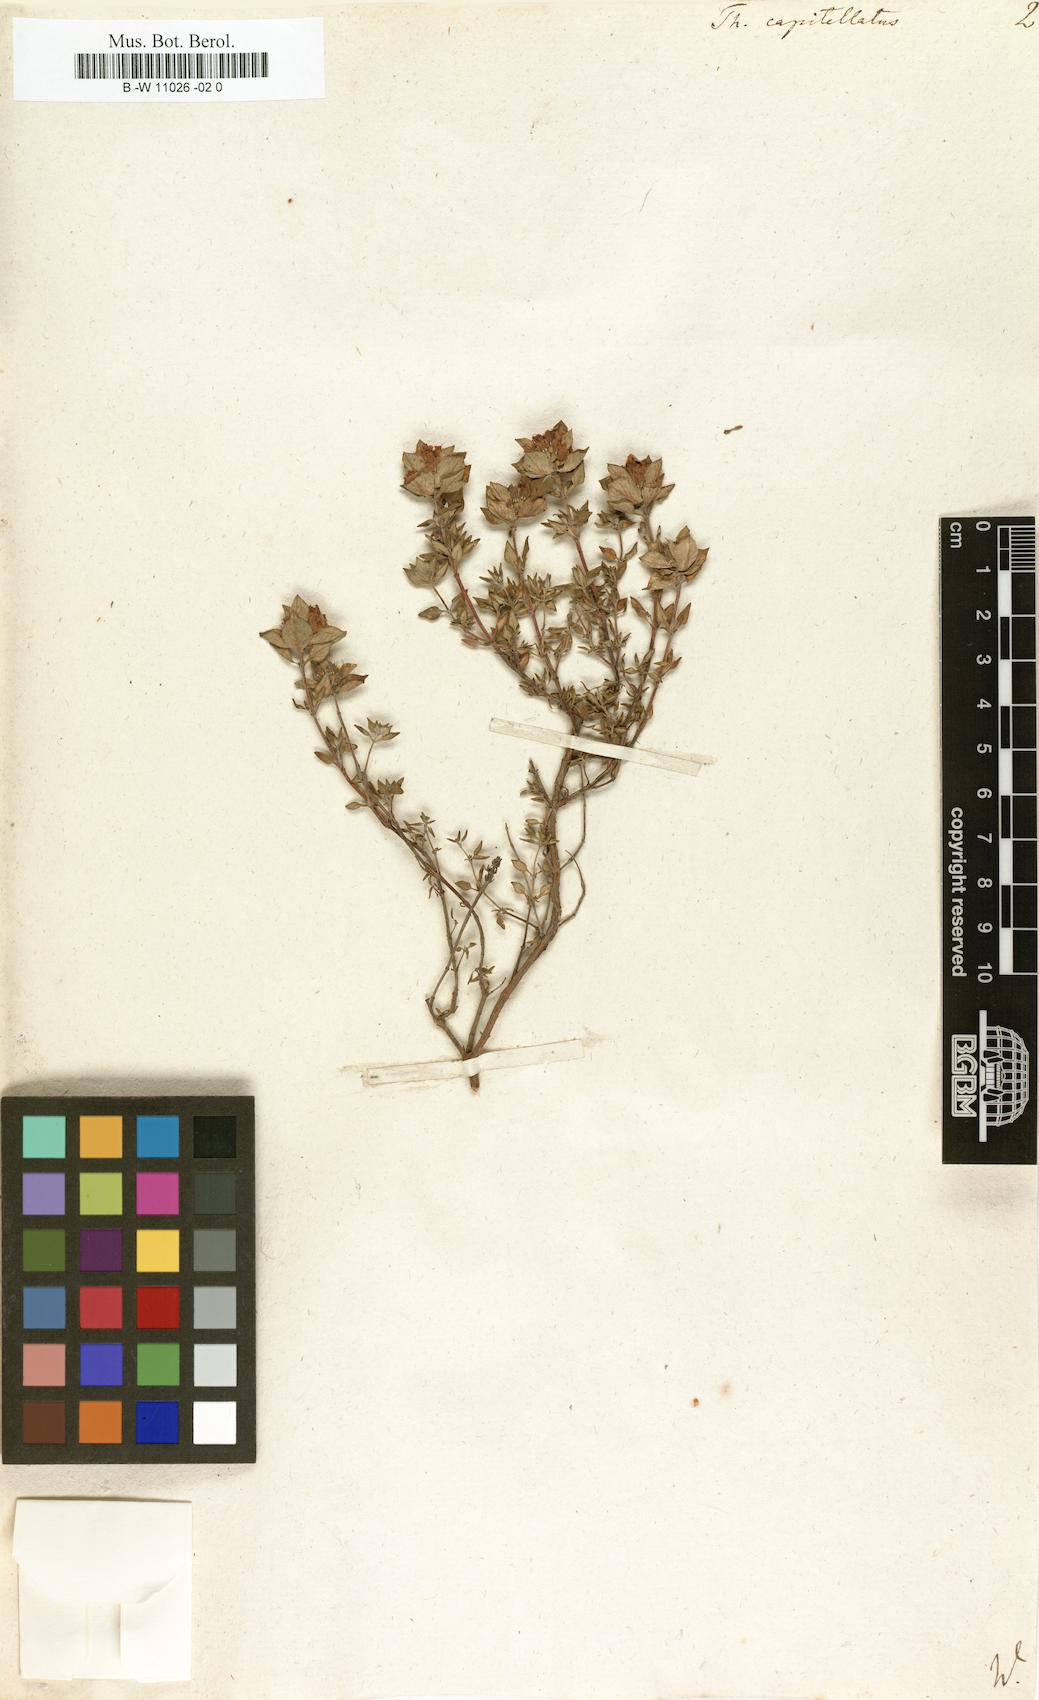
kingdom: Plantae
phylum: Tracheophyta
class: Magnoliopsida
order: Lamiales
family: Lamiaceae
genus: Thymus
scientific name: Thymus capitellatus
